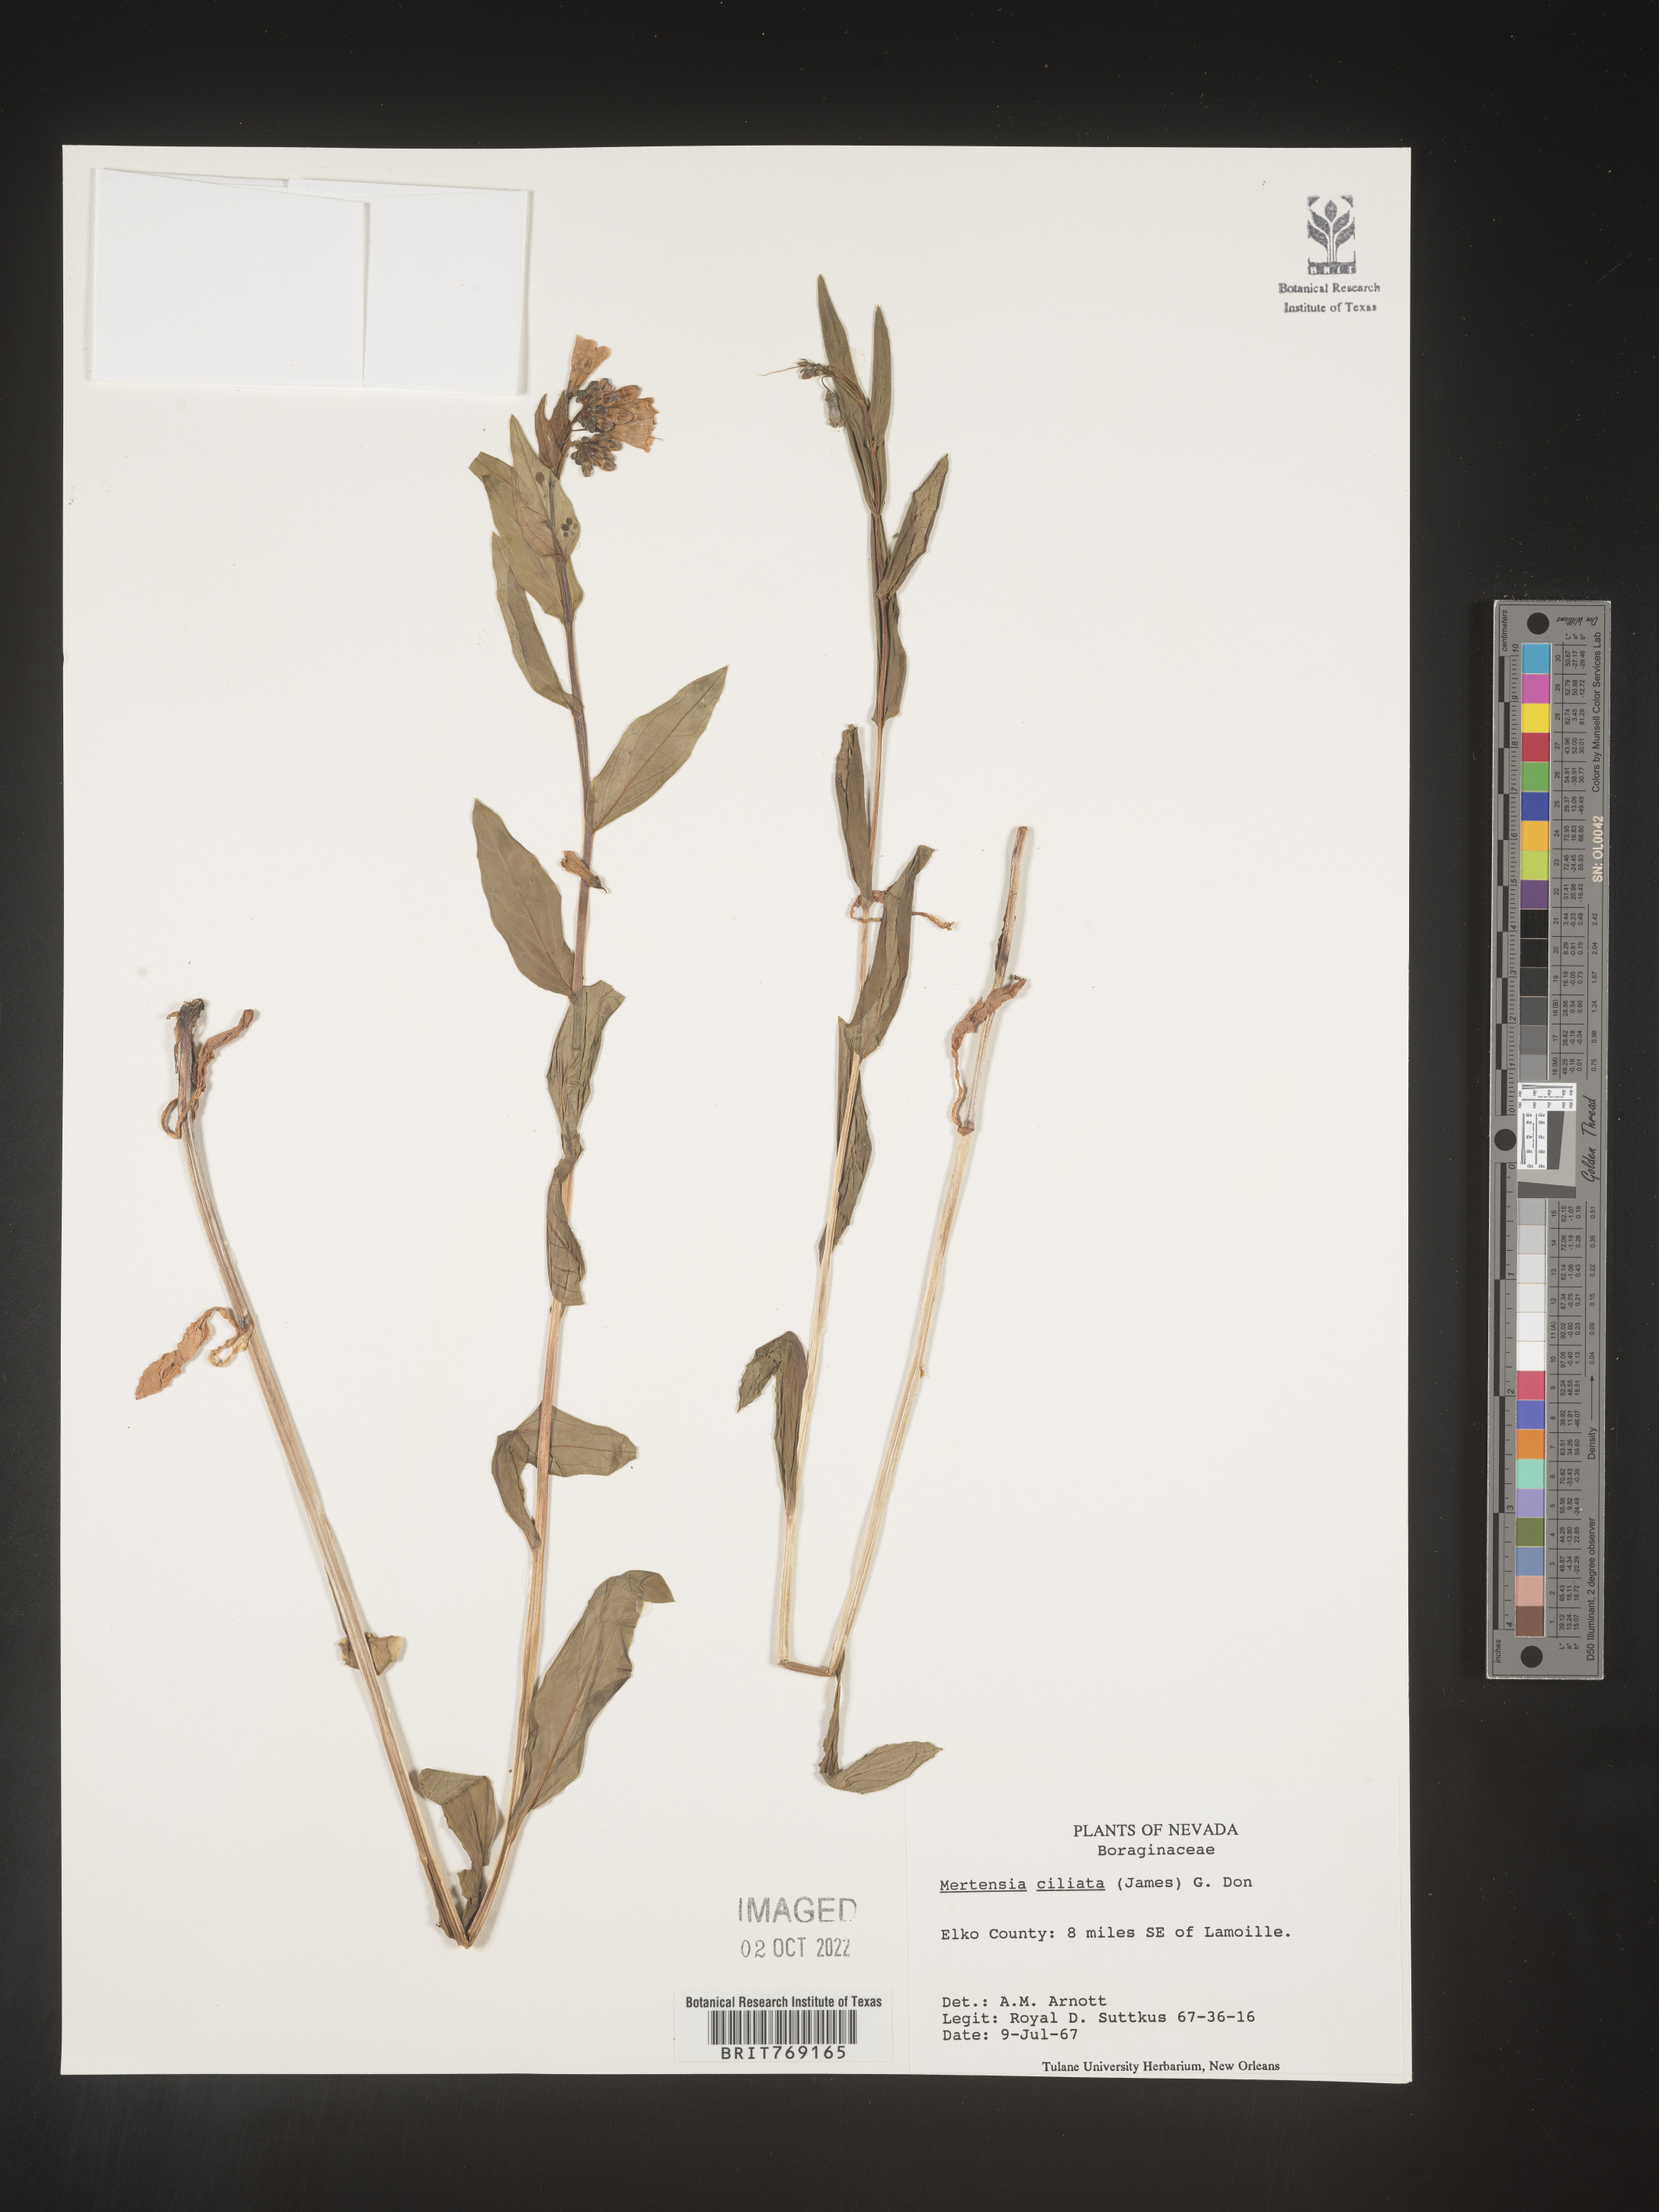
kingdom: Plantae
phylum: Tracheophyta
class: Magnoliopsida
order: Boraginales
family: Boraginaceae
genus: Mertensia
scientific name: Mertensia
